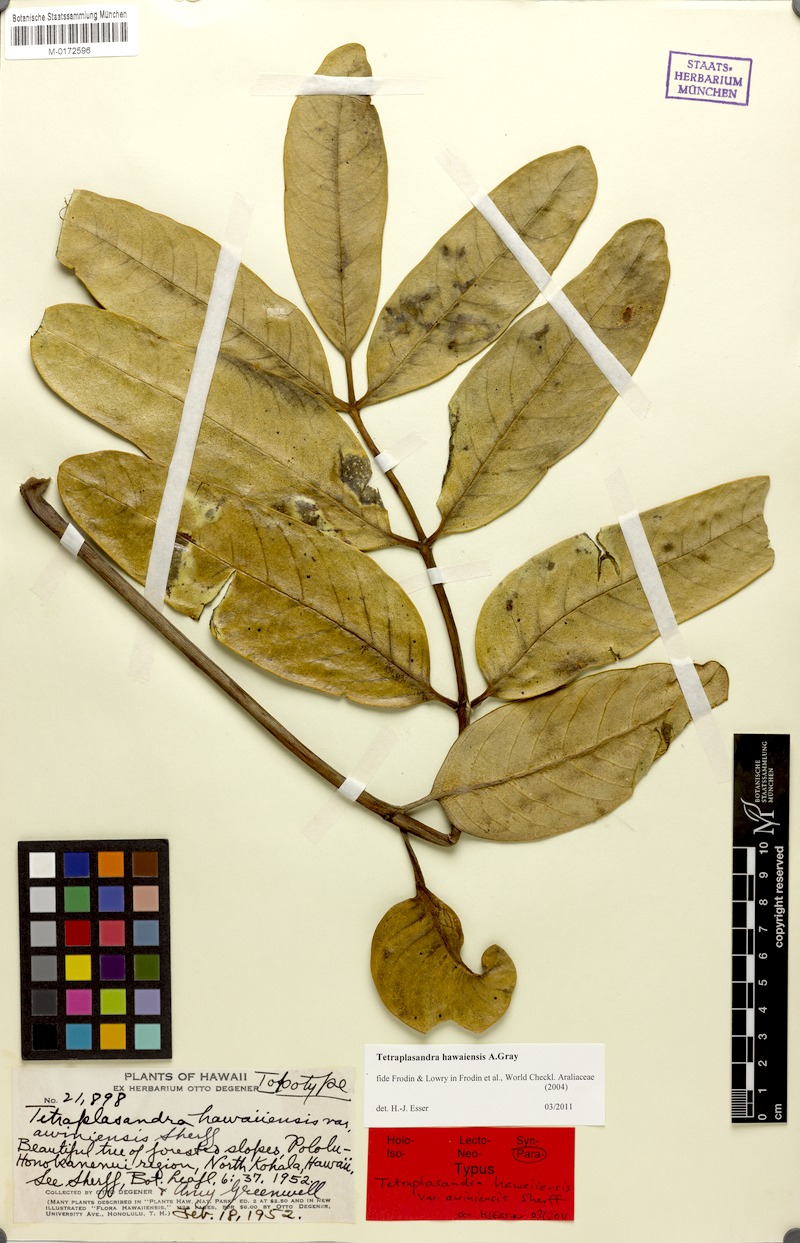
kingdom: Plantae
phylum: Tracheophyta
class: Magnoliopsida
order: Apiales
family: Araliaceae
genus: Polyscias
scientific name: Polyscias hawaiensis
